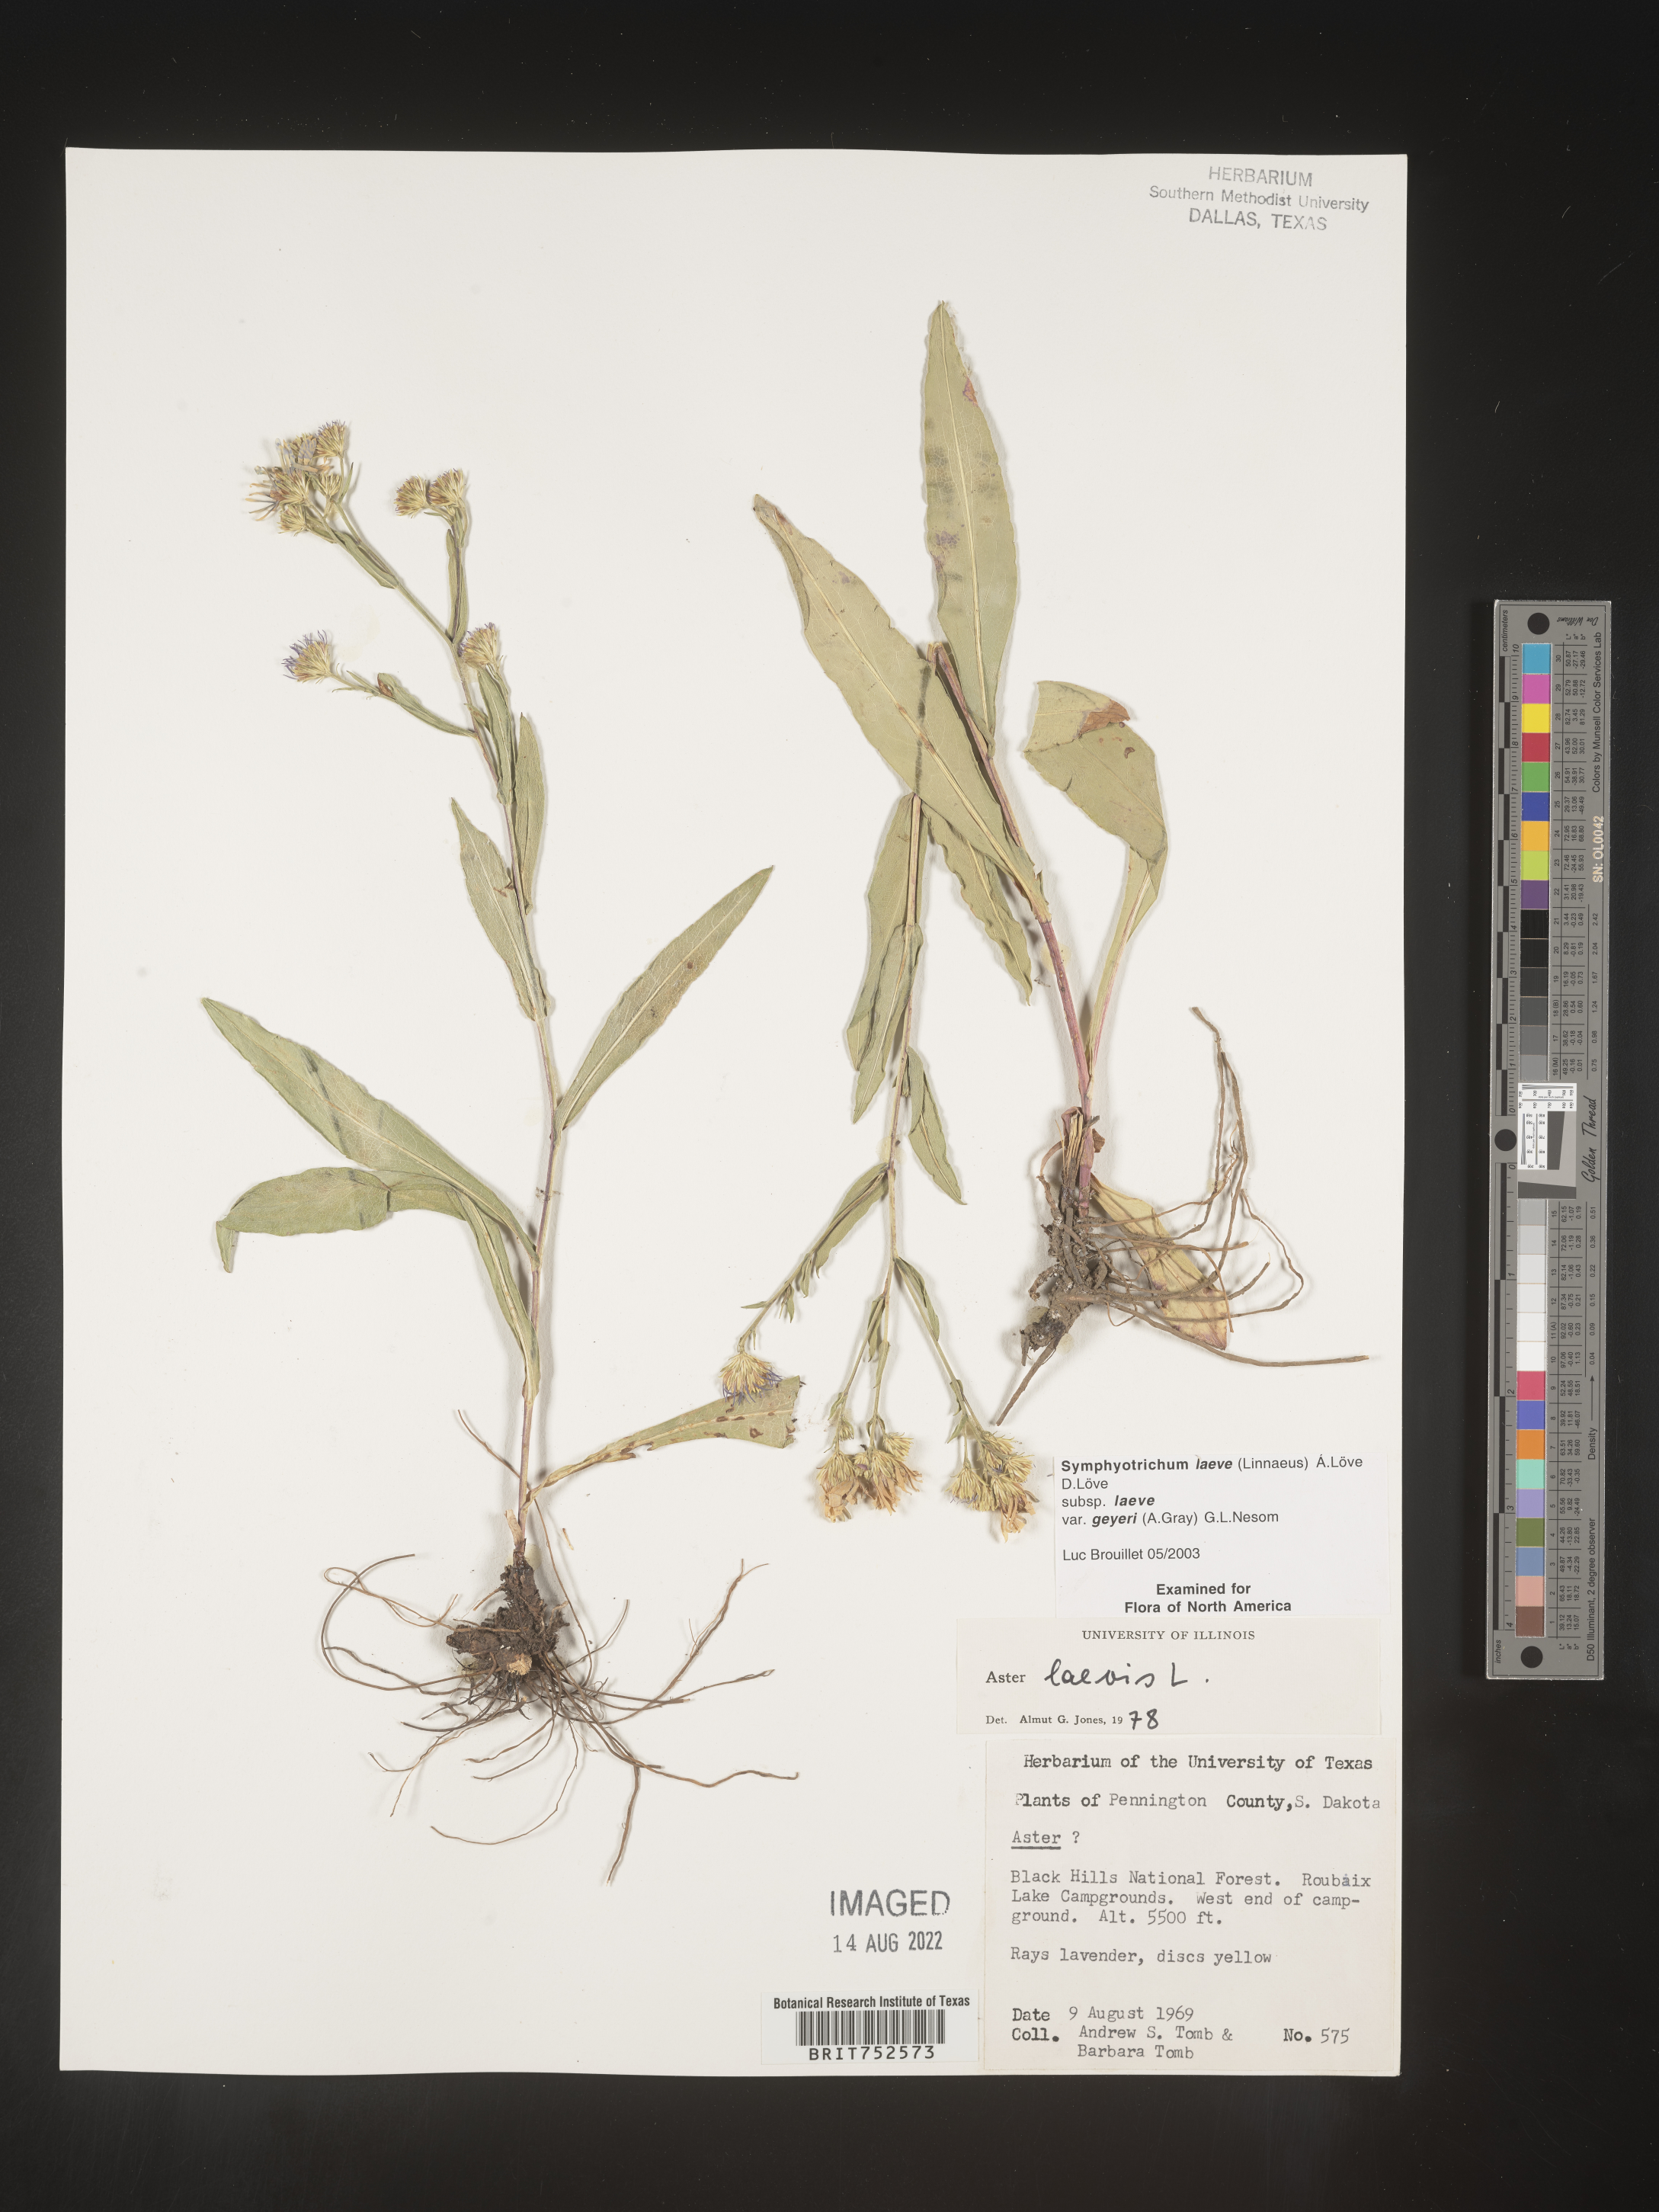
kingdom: Plantae
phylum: Tracheophyta
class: Magnoliopsida
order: Asterales
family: Asteraceae
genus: Symphyotrichum
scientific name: Symphyotrichum laeve
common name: Glaucous aster
